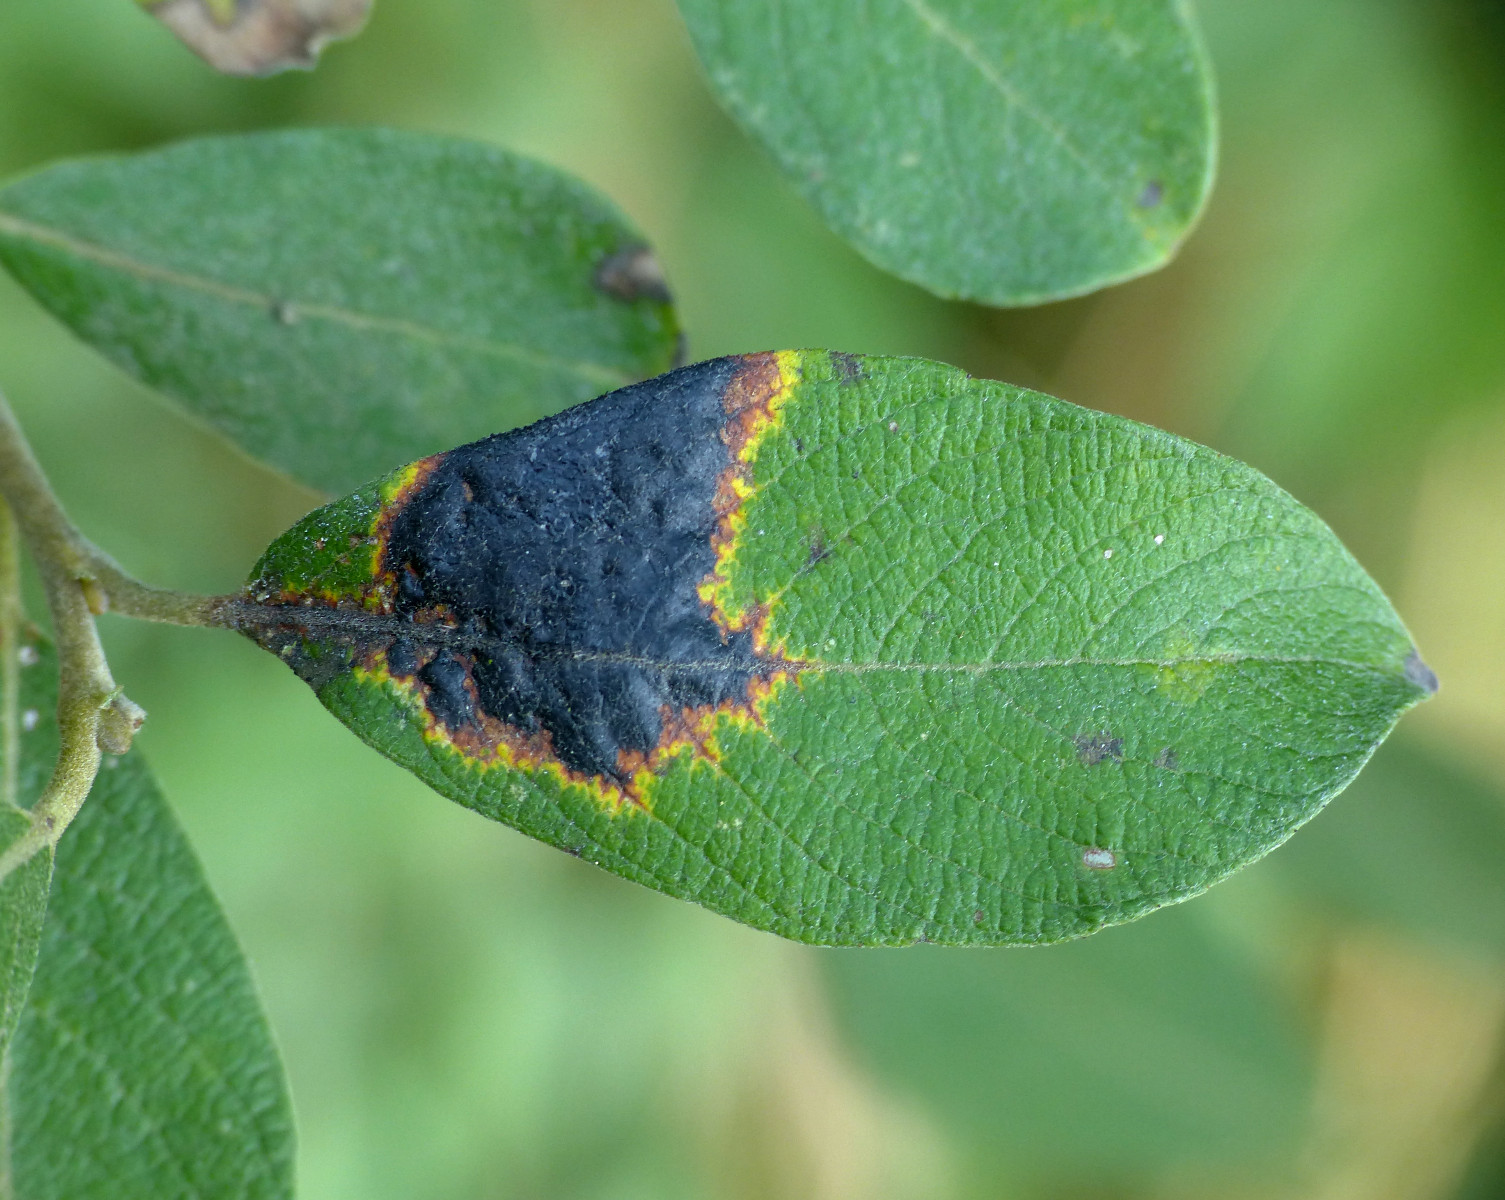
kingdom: Fungi
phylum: Ascomycota
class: Leotiomycetes
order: Rhytismatales
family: Rhytismataceae
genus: Rhytisma
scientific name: Rhytisma salicinum
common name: pile-rynkeplet
